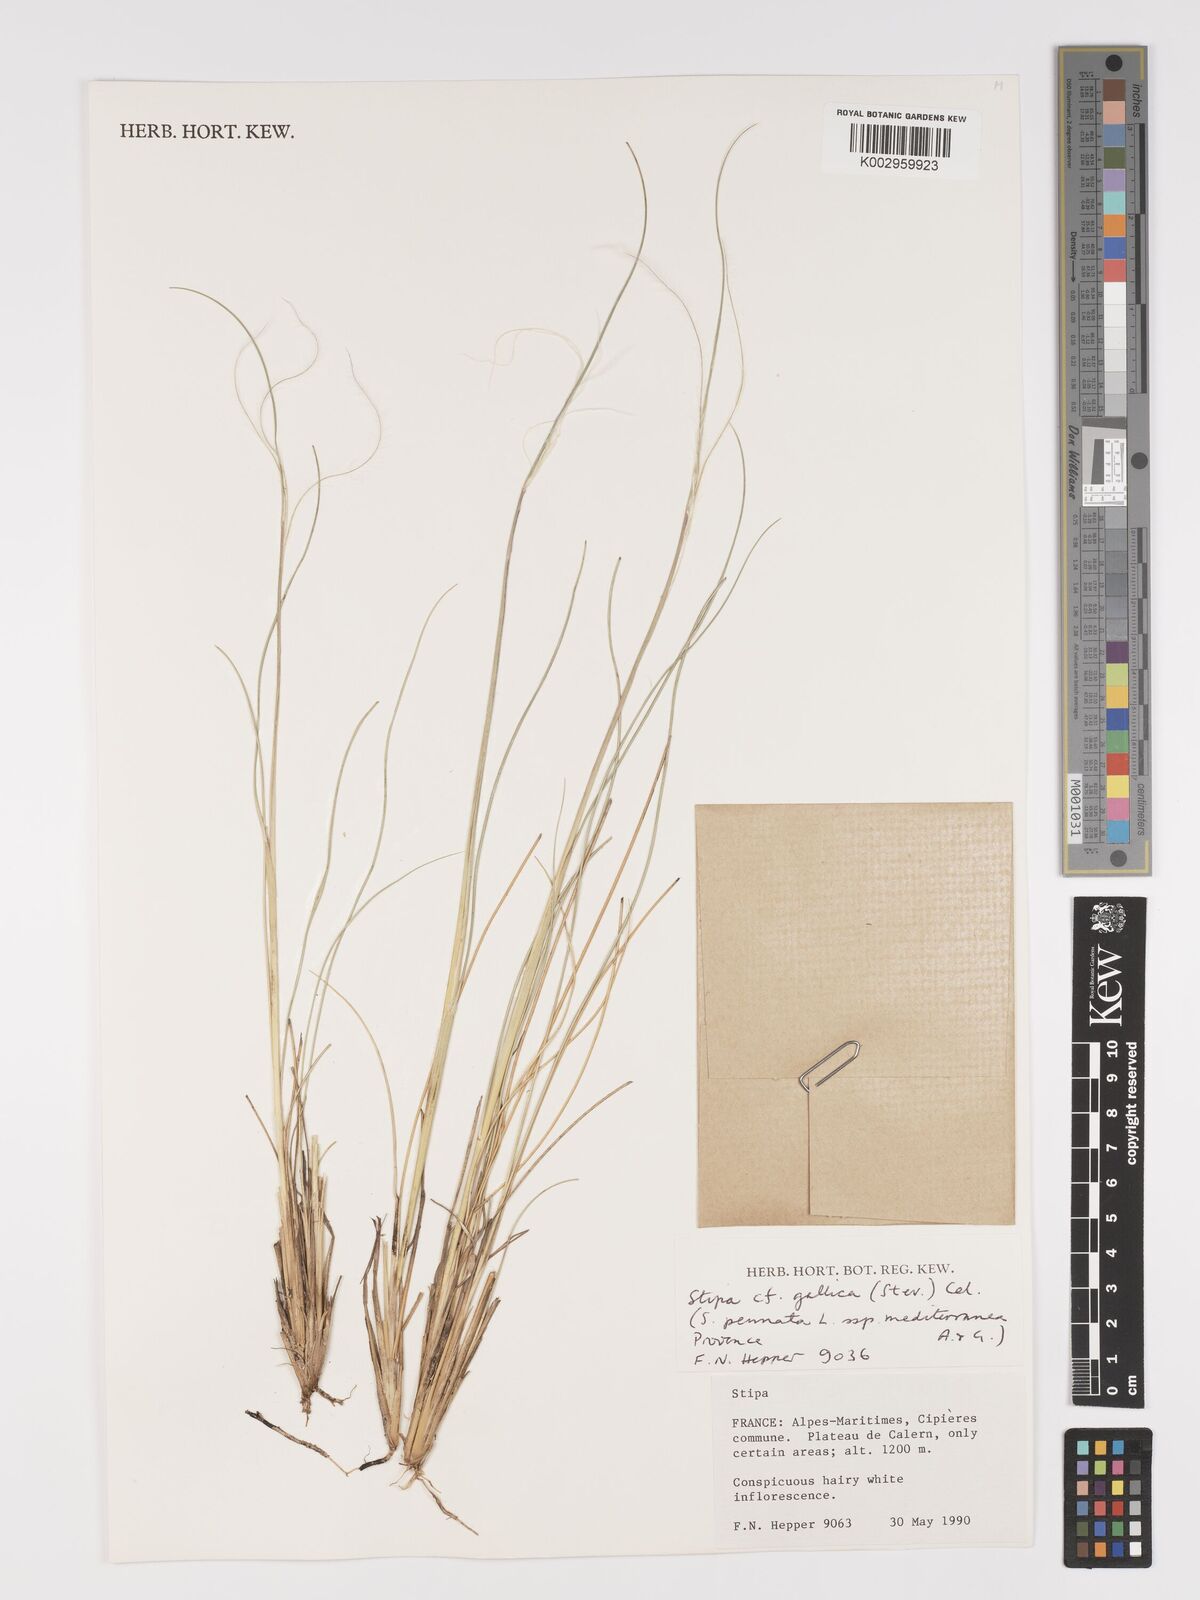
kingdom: Plantae
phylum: Tracheophyta
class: Liliopsida
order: Poales
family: Poaceae
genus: Stipa
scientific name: Stipa
